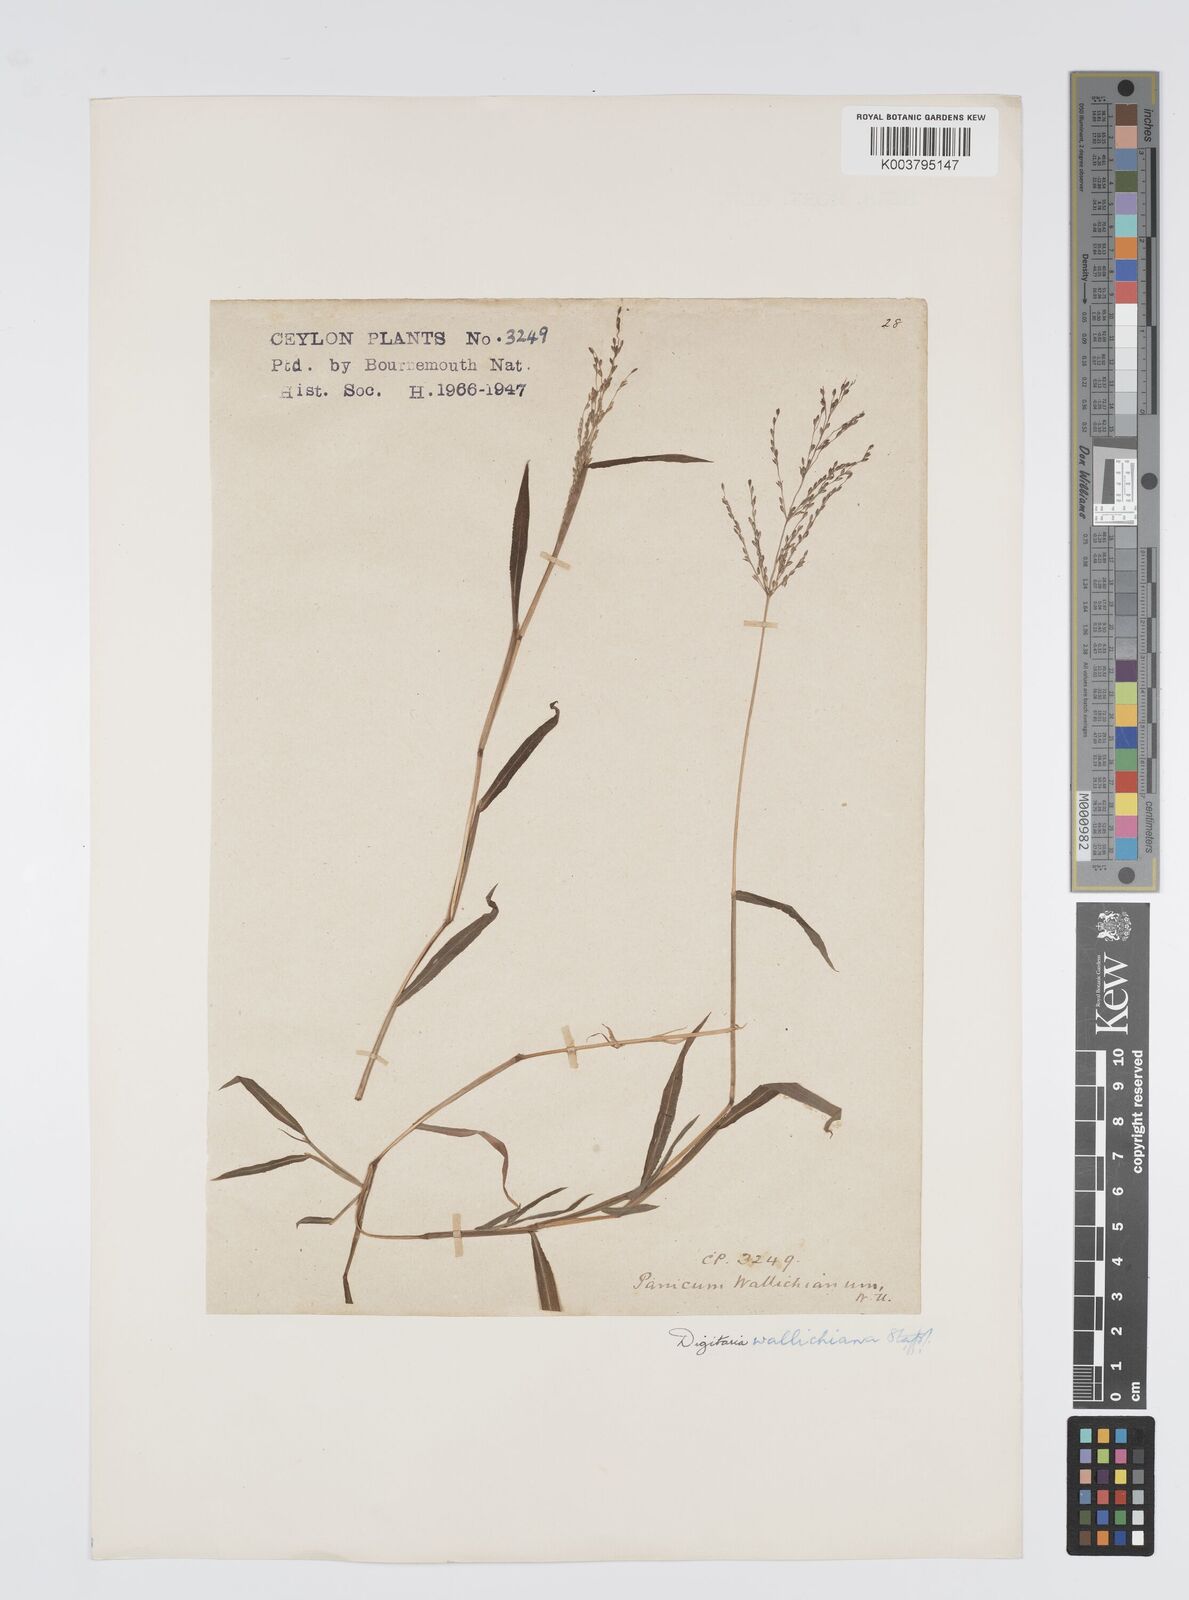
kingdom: Plantae
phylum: Tracheophyta
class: Liliopsida
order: Poales
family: Poaceae
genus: Digitaria
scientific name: Digitaria wallichiana
